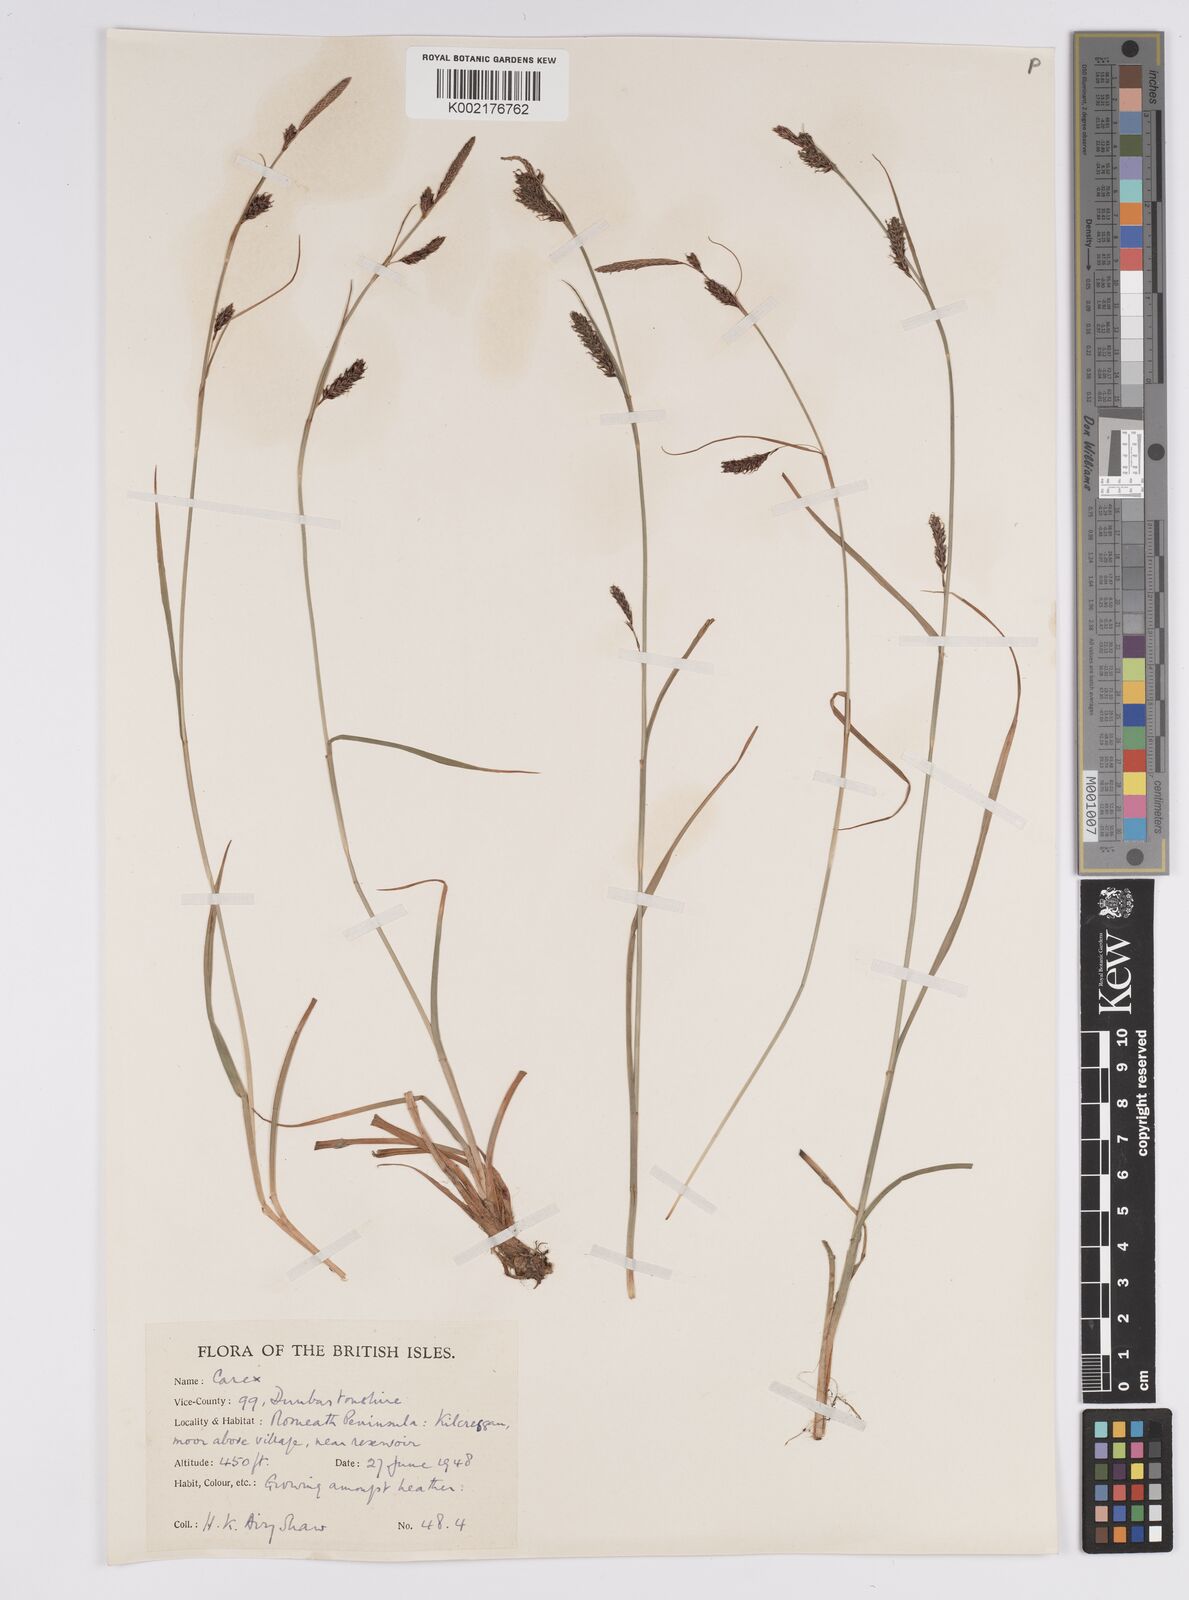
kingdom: Plantae
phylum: Tracheophyta
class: Liliopsida
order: Poales
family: Cyperaceae
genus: Carex
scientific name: Carex binervis
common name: Green-ribbed sedge
